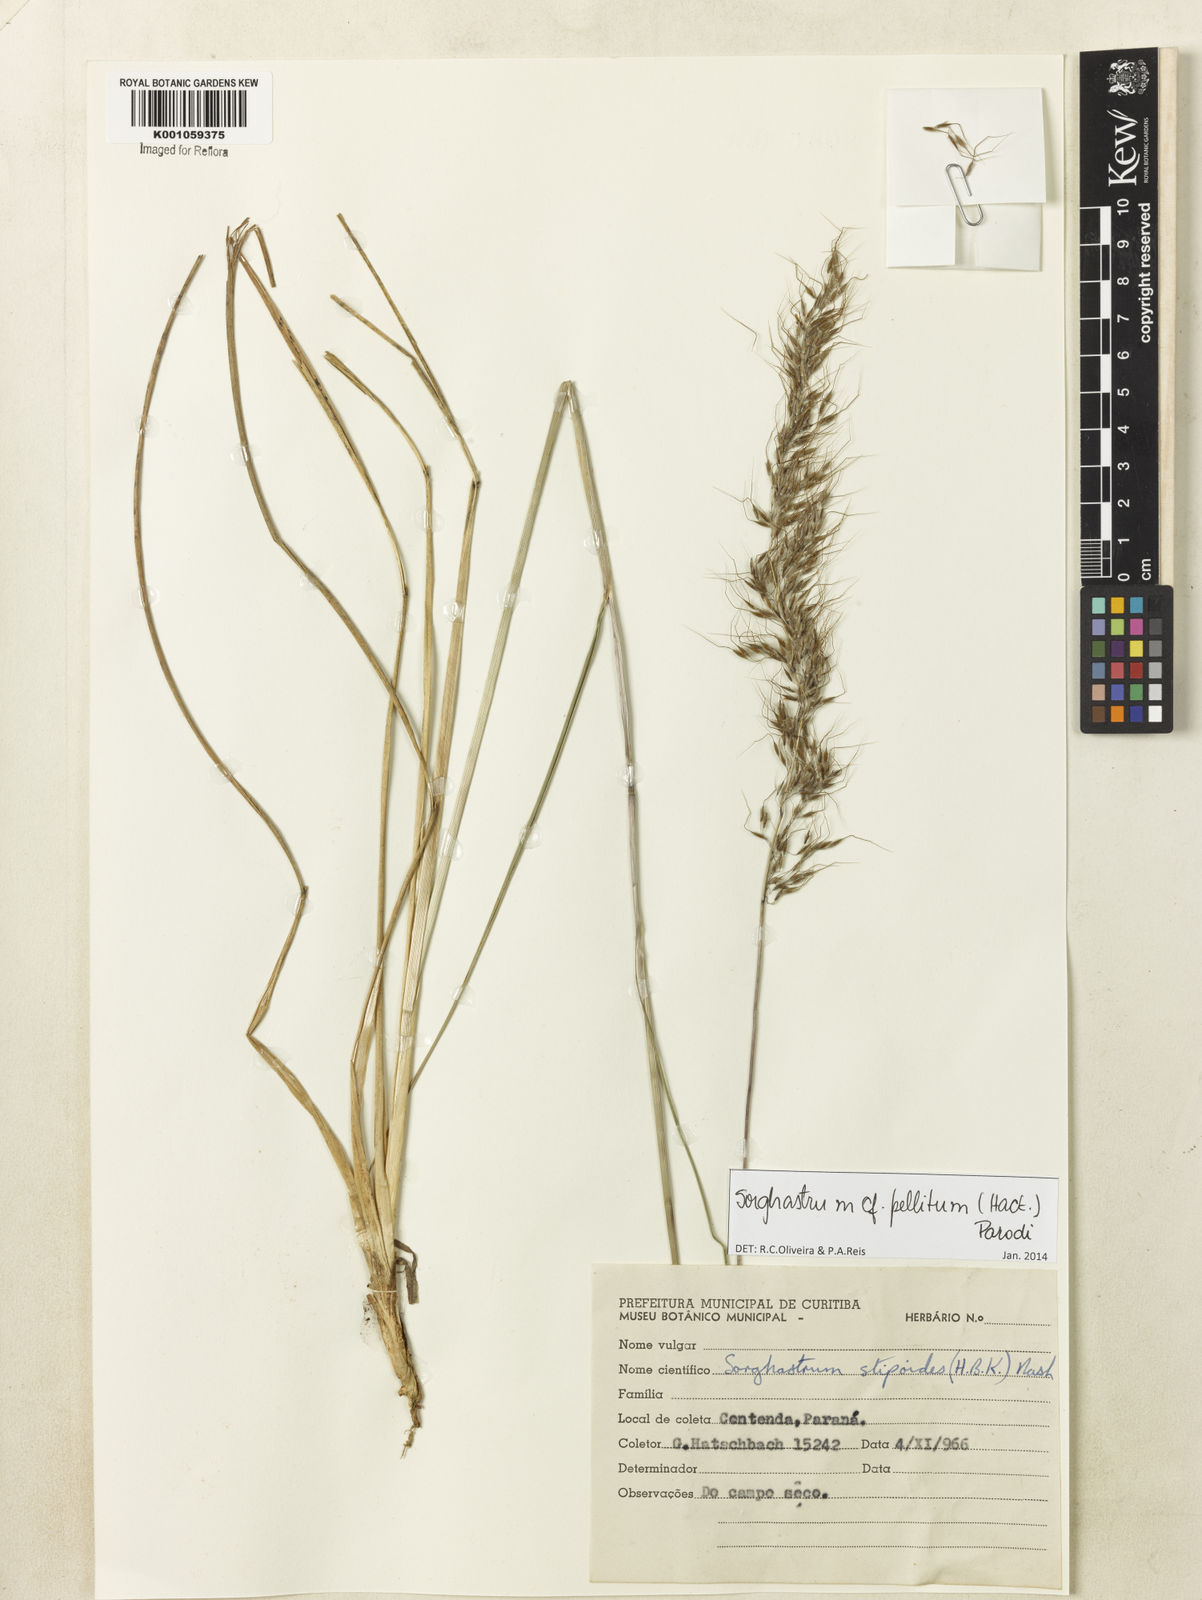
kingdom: Plantae
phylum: Tracheophyta
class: Liliopsida
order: Poales
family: Poaceae
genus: Sorghastrum
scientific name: Sorghastrum pellitum
